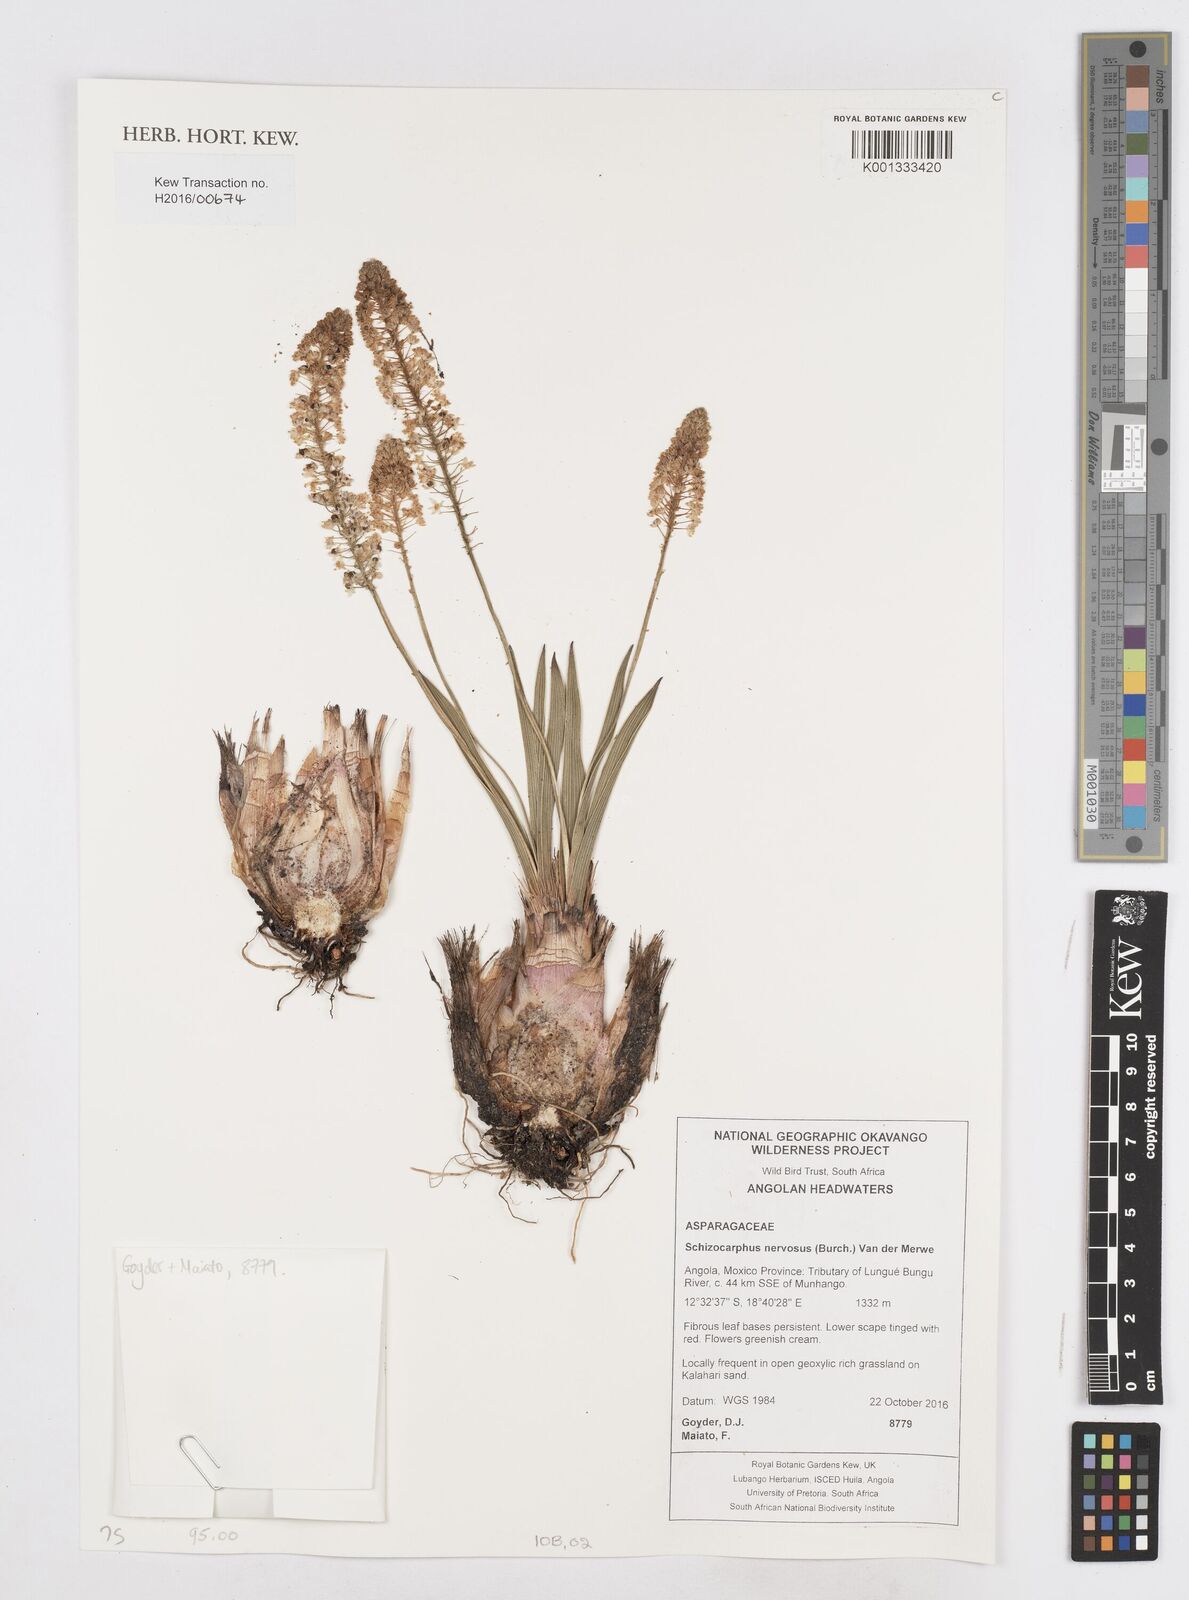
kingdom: Plantae
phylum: Tracheophyta
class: Liliopsida
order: Asparagales
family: Asparagaceae
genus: Schizocarphus
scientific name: Schizocarphus nervosus
